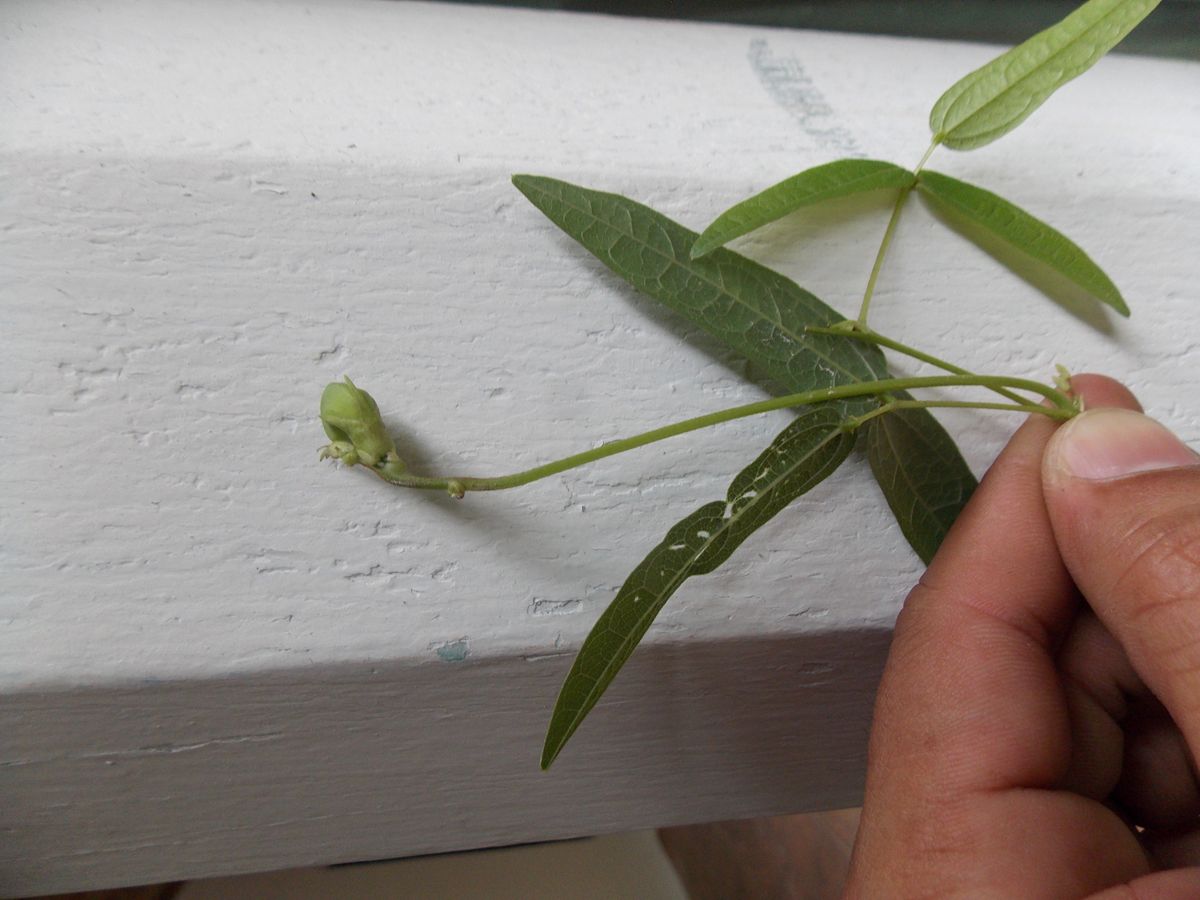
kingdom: Plantae
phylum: Tracheophyta
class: Magnoliopsida
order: Fabales
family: Fabaceae
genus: Helicotropis
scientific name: Helicotropis linearis
